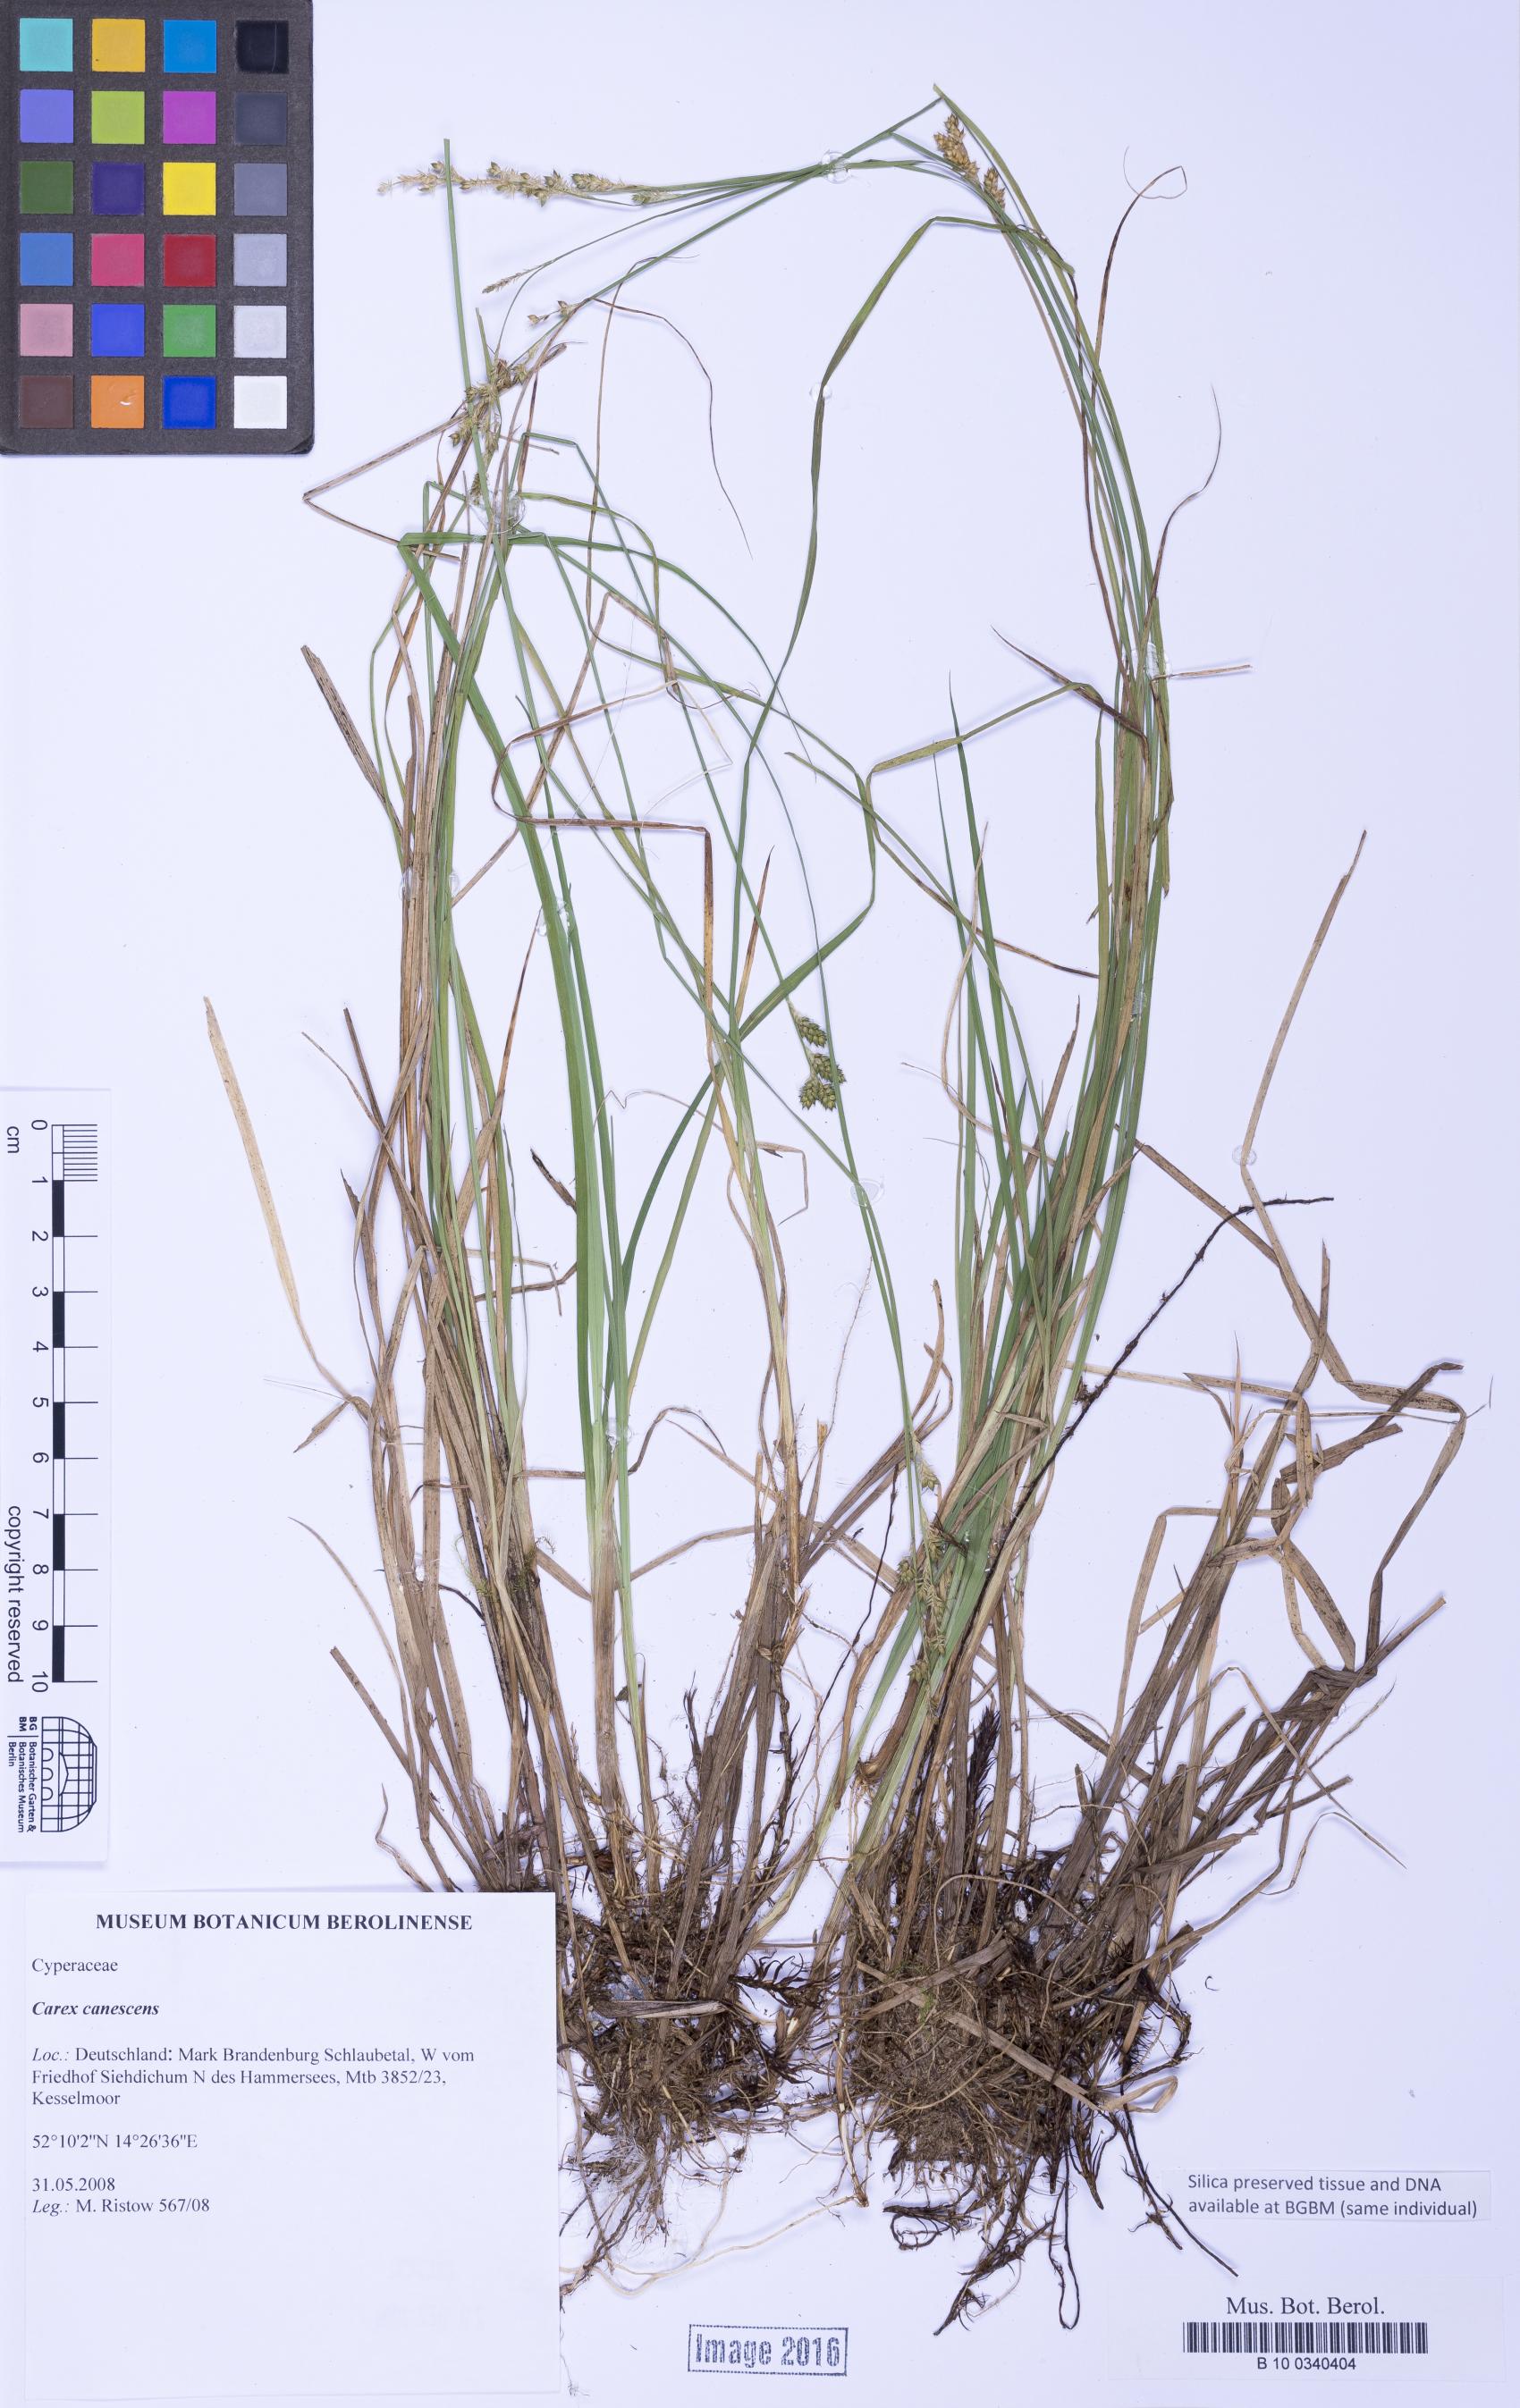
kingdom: Plantae
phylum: Tracheophyta
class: Liliopsida
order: Poales
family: Cyperaceae
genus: Carex
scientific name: Carex canescens
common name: White sedge
